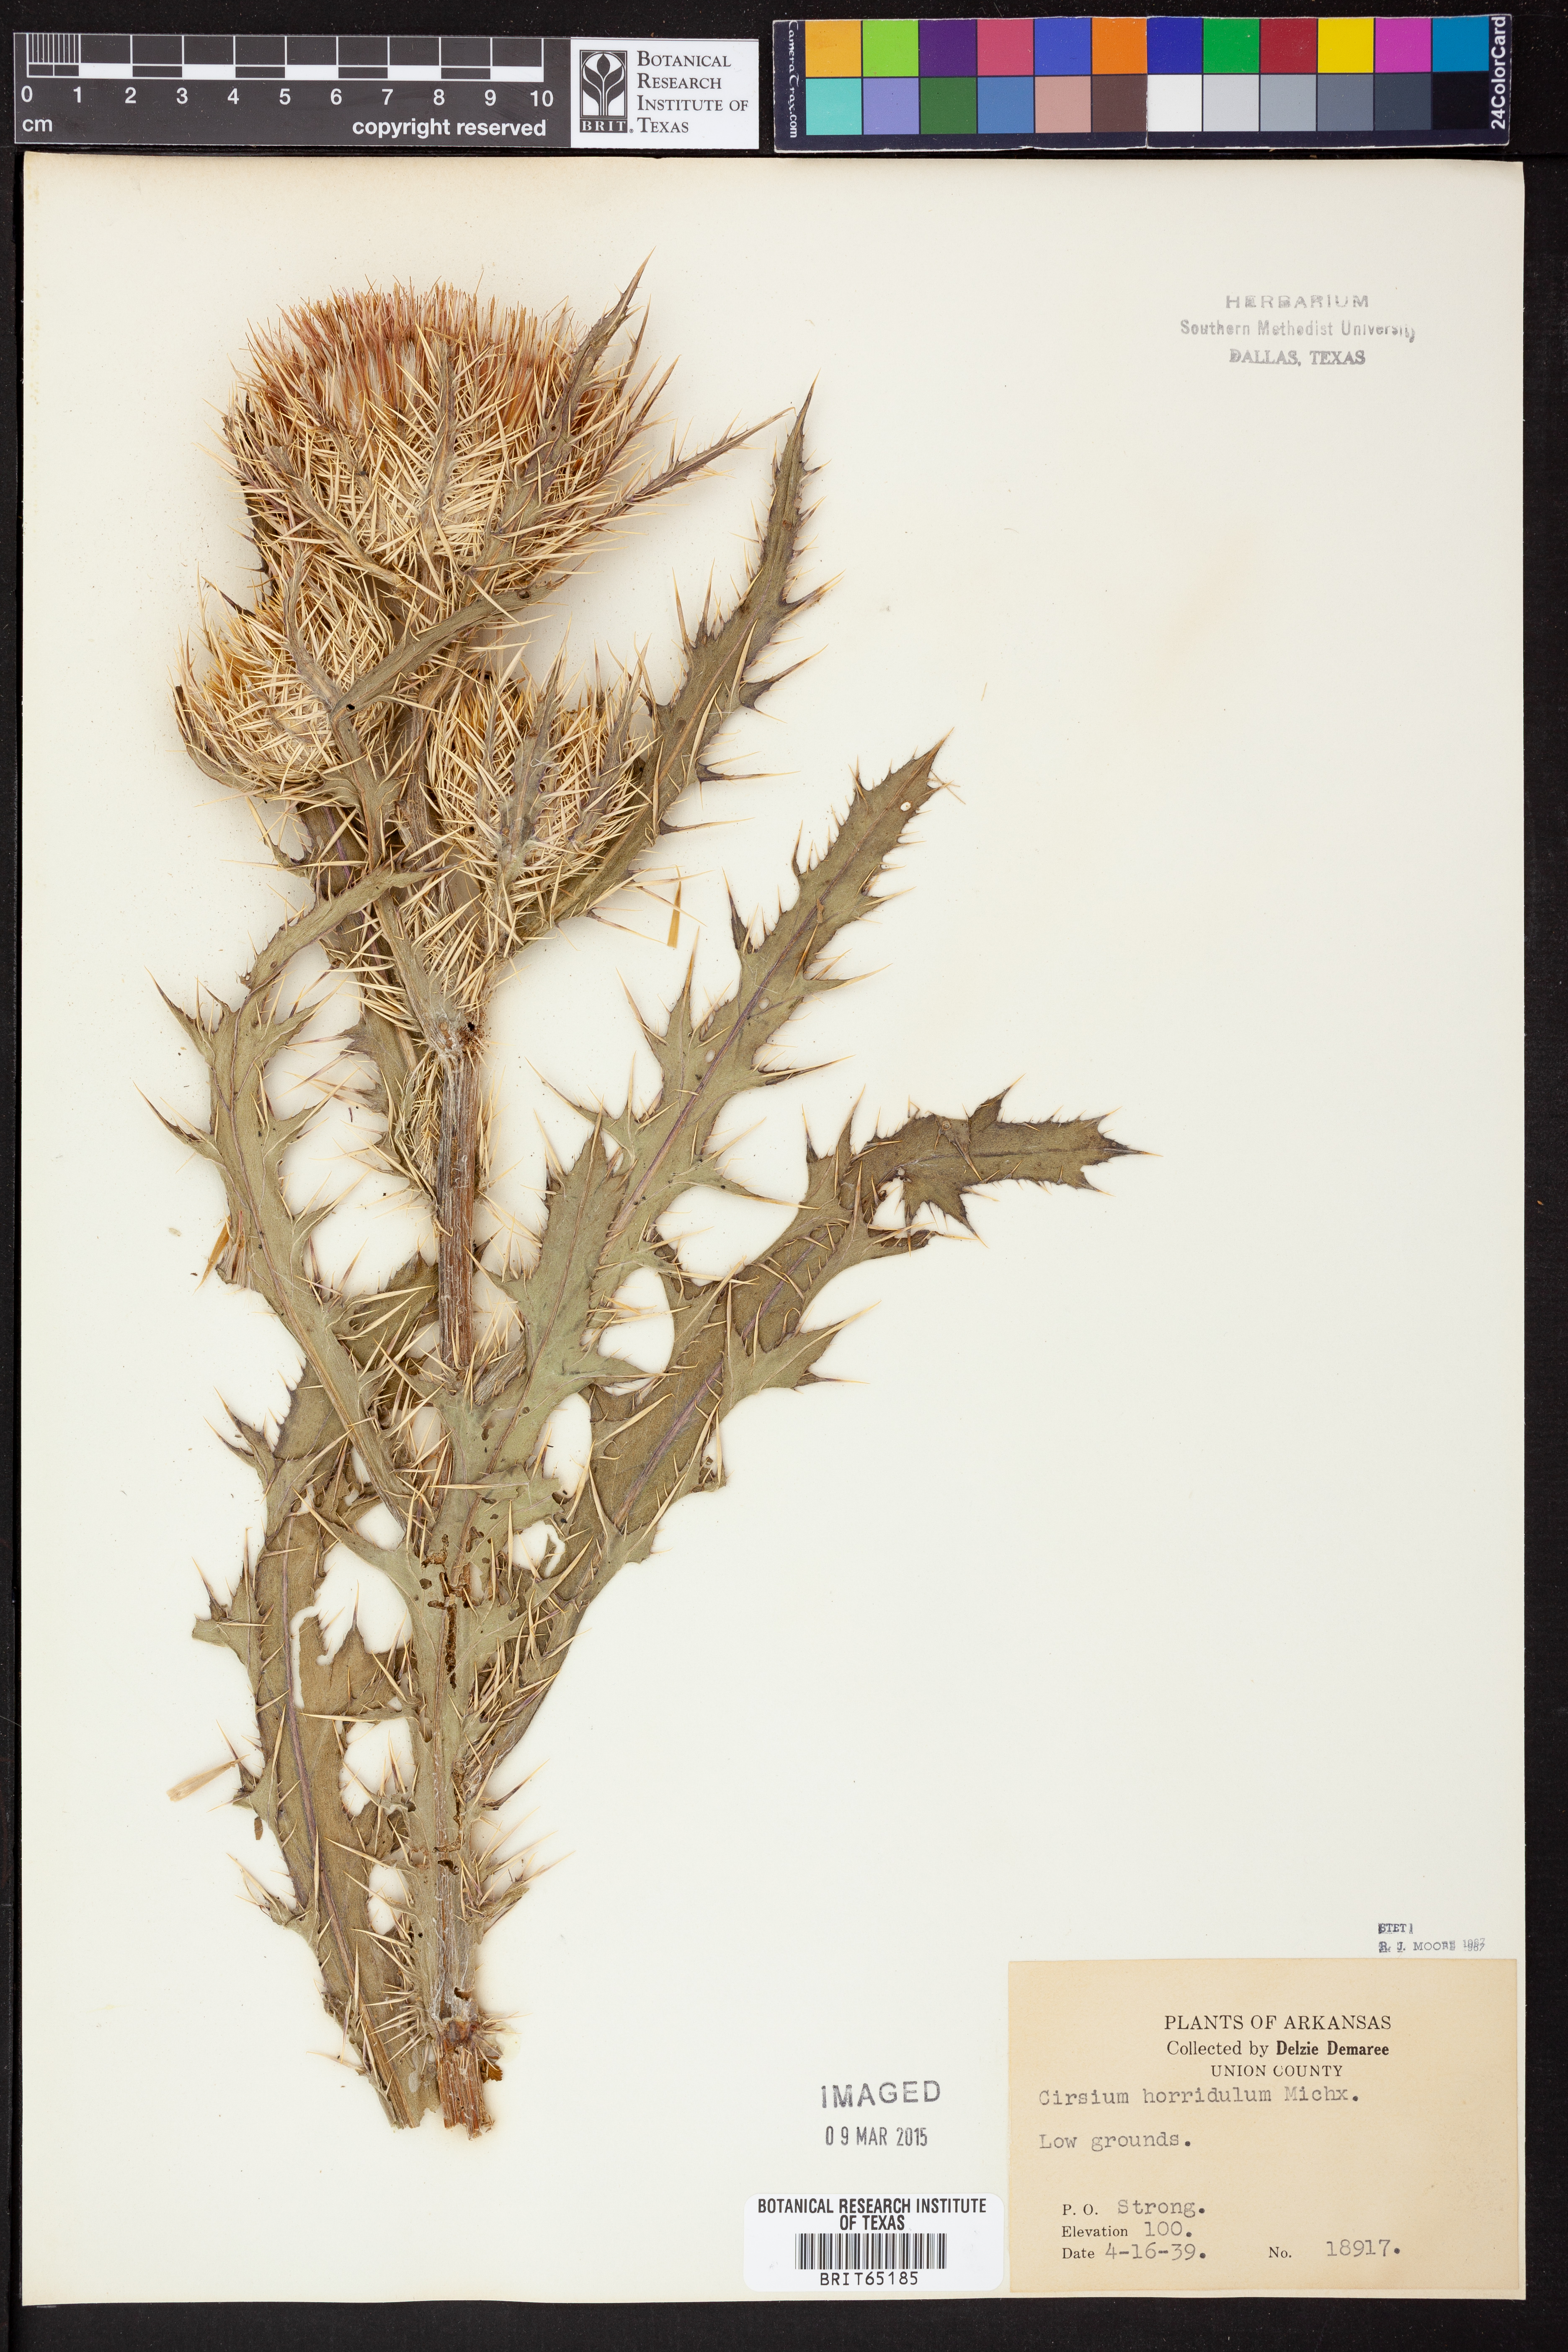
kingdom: Plantae
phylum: Tracheophyta
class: Magnoliopsida
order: Asterales
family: Asteraceae
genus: Cirsium
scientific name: Cirsium horridulum
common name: Bristly thistle
